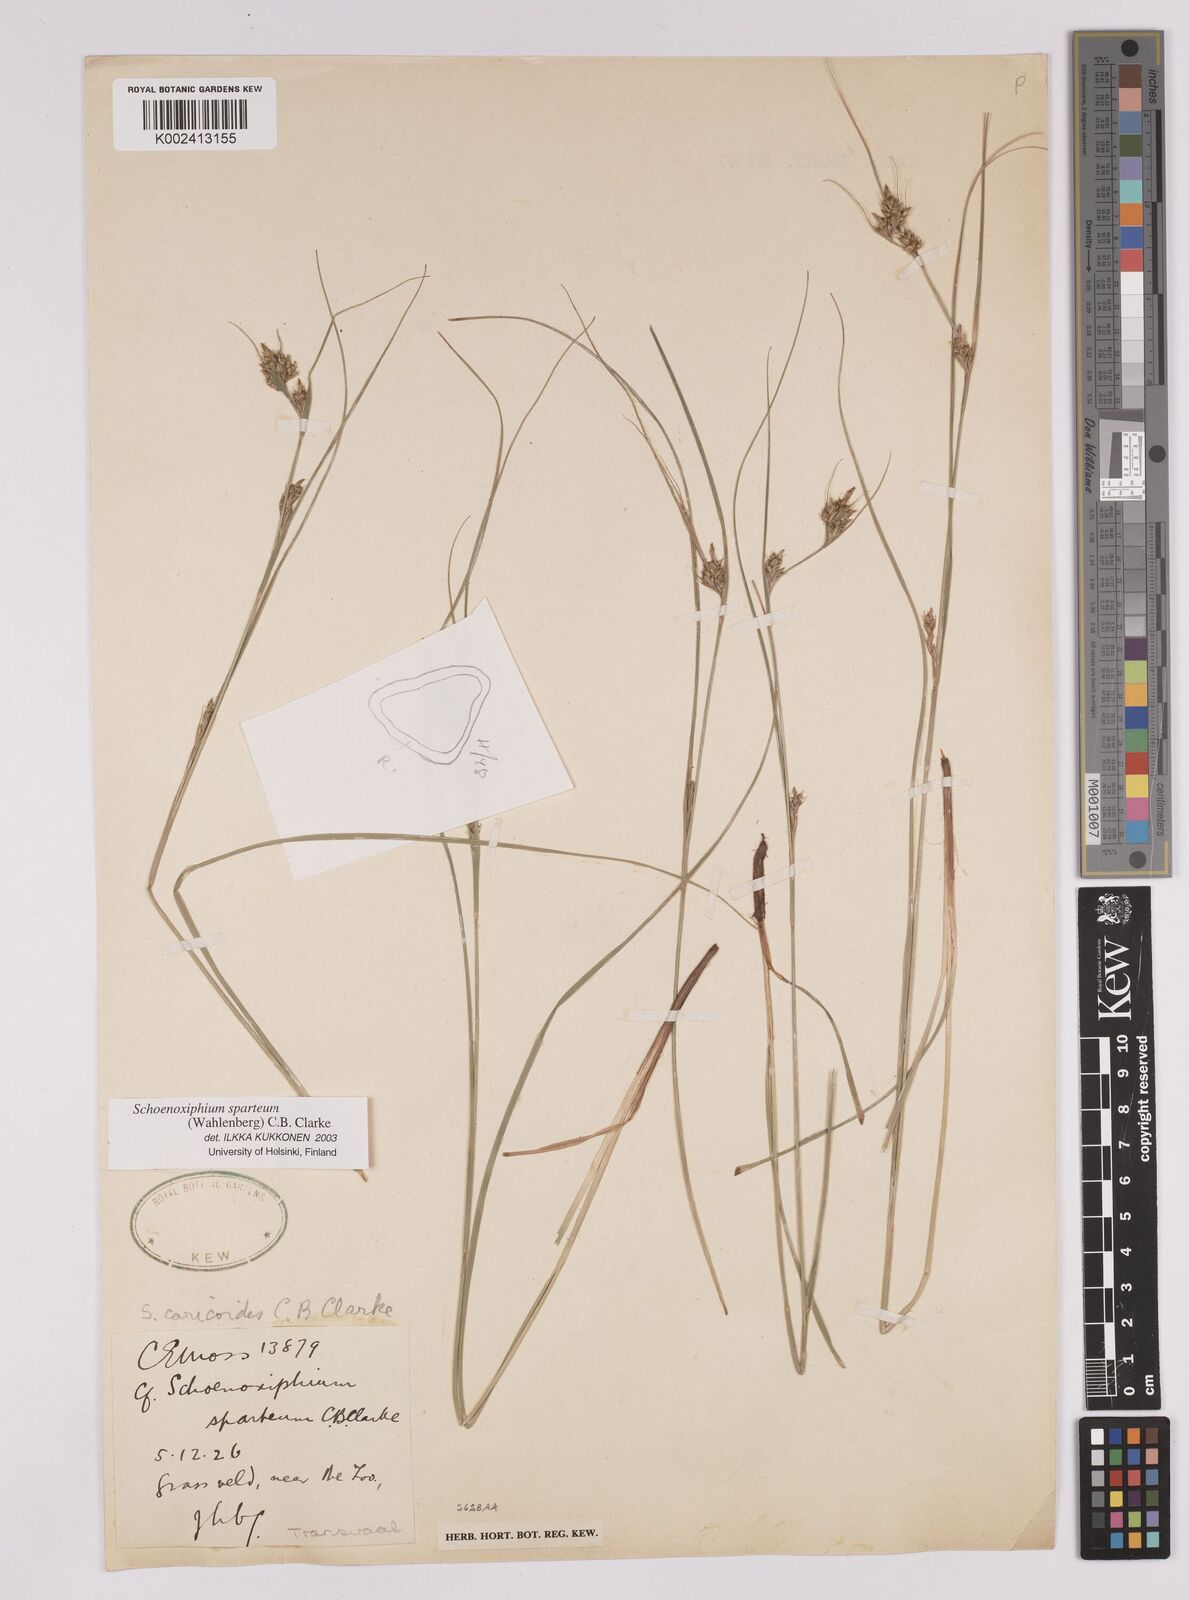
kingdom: Plantae
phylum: Tracheophyta
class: Liliopsida
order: Poales
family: Cyperaceae
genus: Carex
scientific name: Carex spartea
